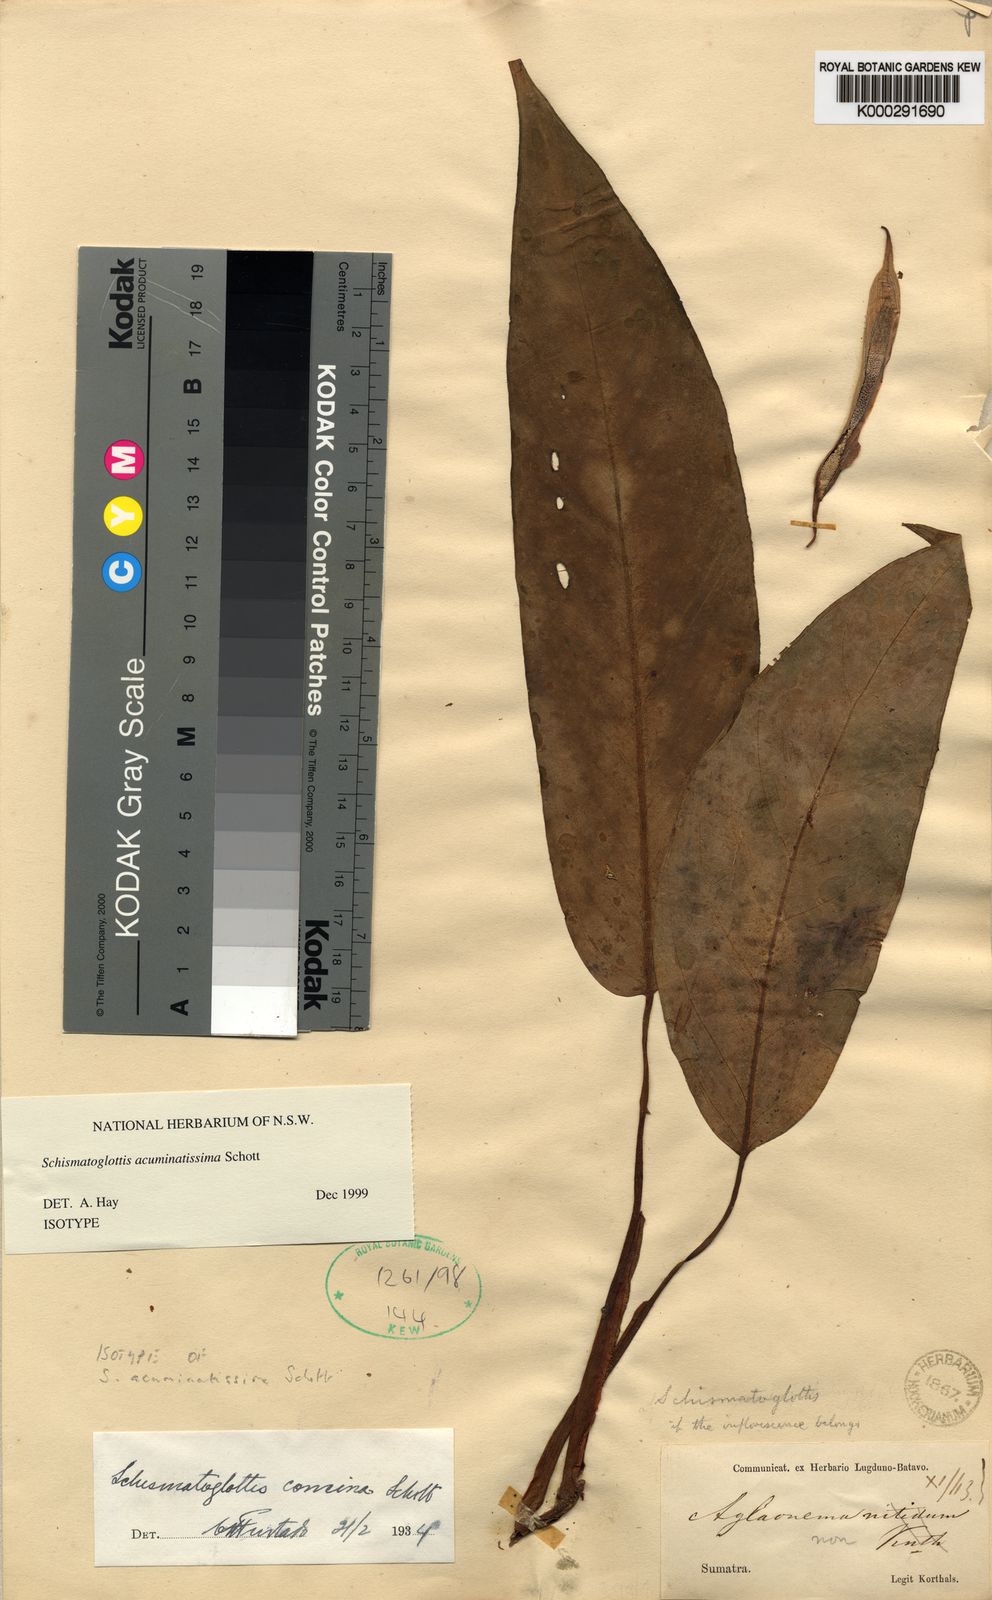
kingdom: Plantae
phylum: Tracheophyta
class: Liliopsida
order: Alismatales
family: Araceae
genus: Apoballis
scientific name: Apoballis acuminatissima
